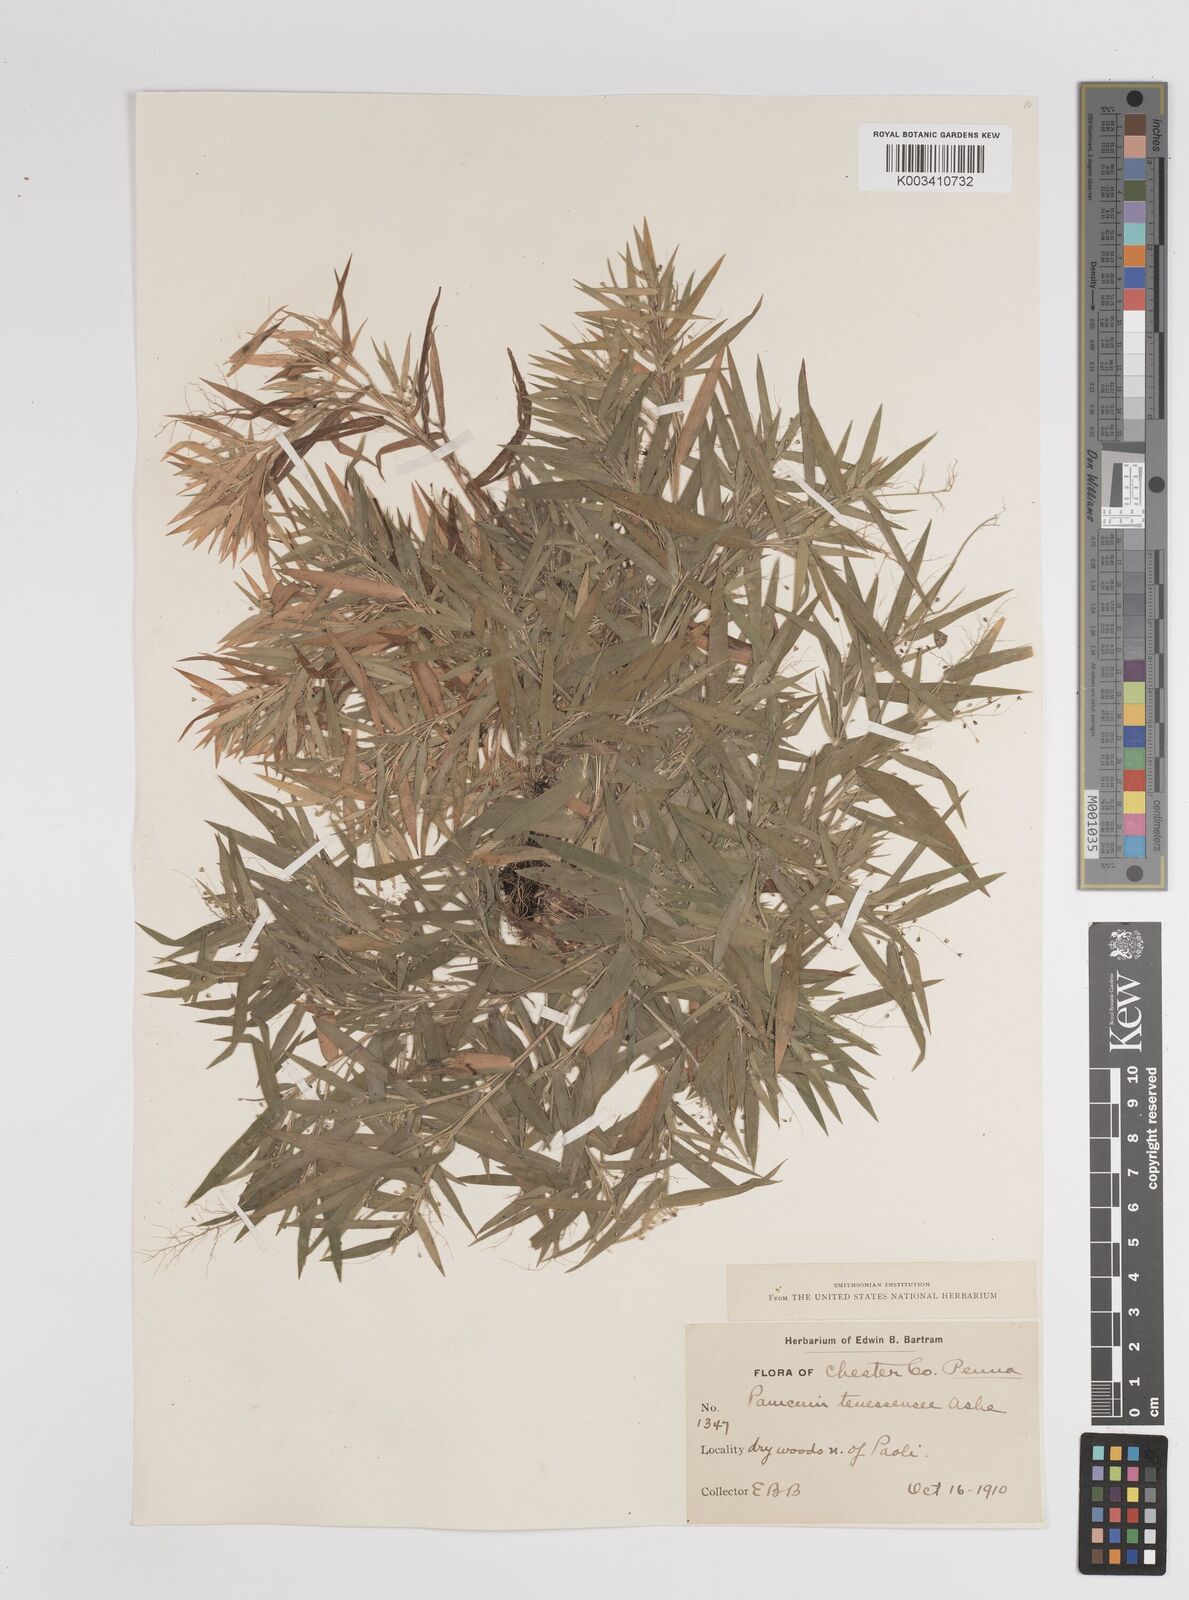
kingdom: Plantae
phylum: Tracheophyta
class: Liliopsida
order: Poales
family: Poaceae
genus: Dichanthelium
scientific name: Dichanthelium acuminatum
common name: Hairy panic grass
